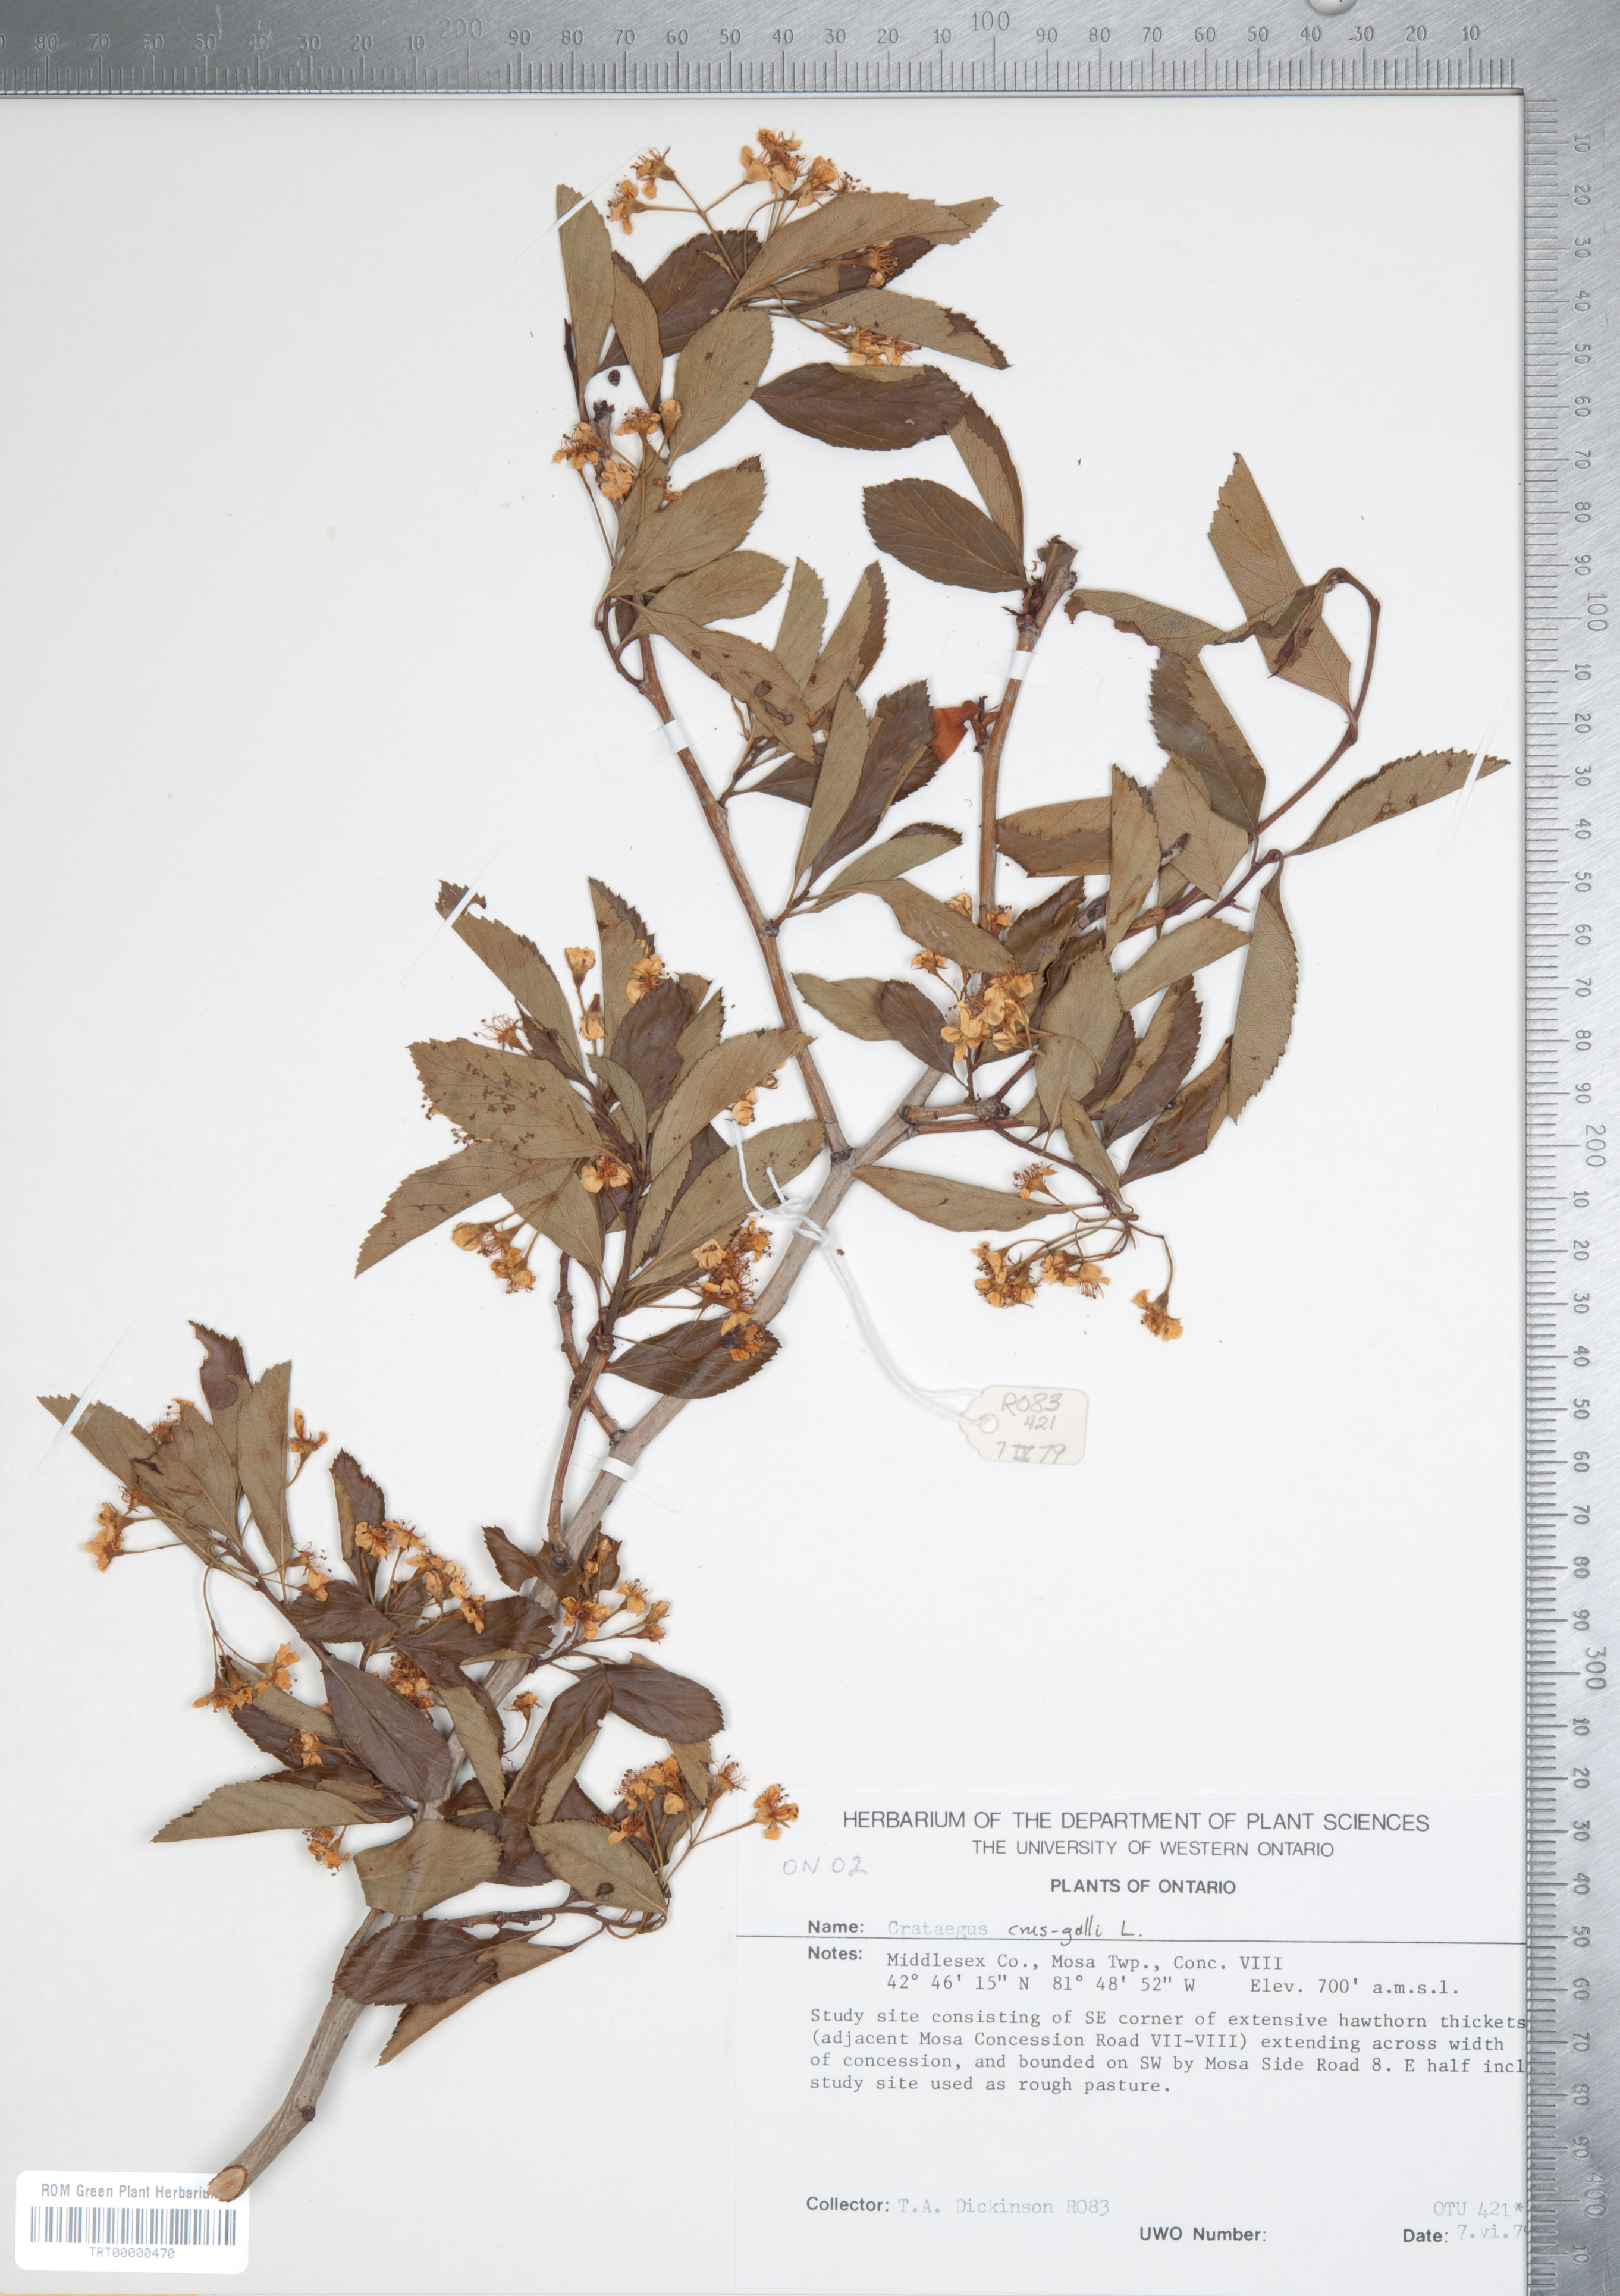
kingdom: Plantae
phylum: Tracheophyta
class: Magnoliopsida
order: Rosales
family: Rosaceae
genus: Crataegus
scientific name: Crataegus crus-galli
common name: Cockspurthorn
